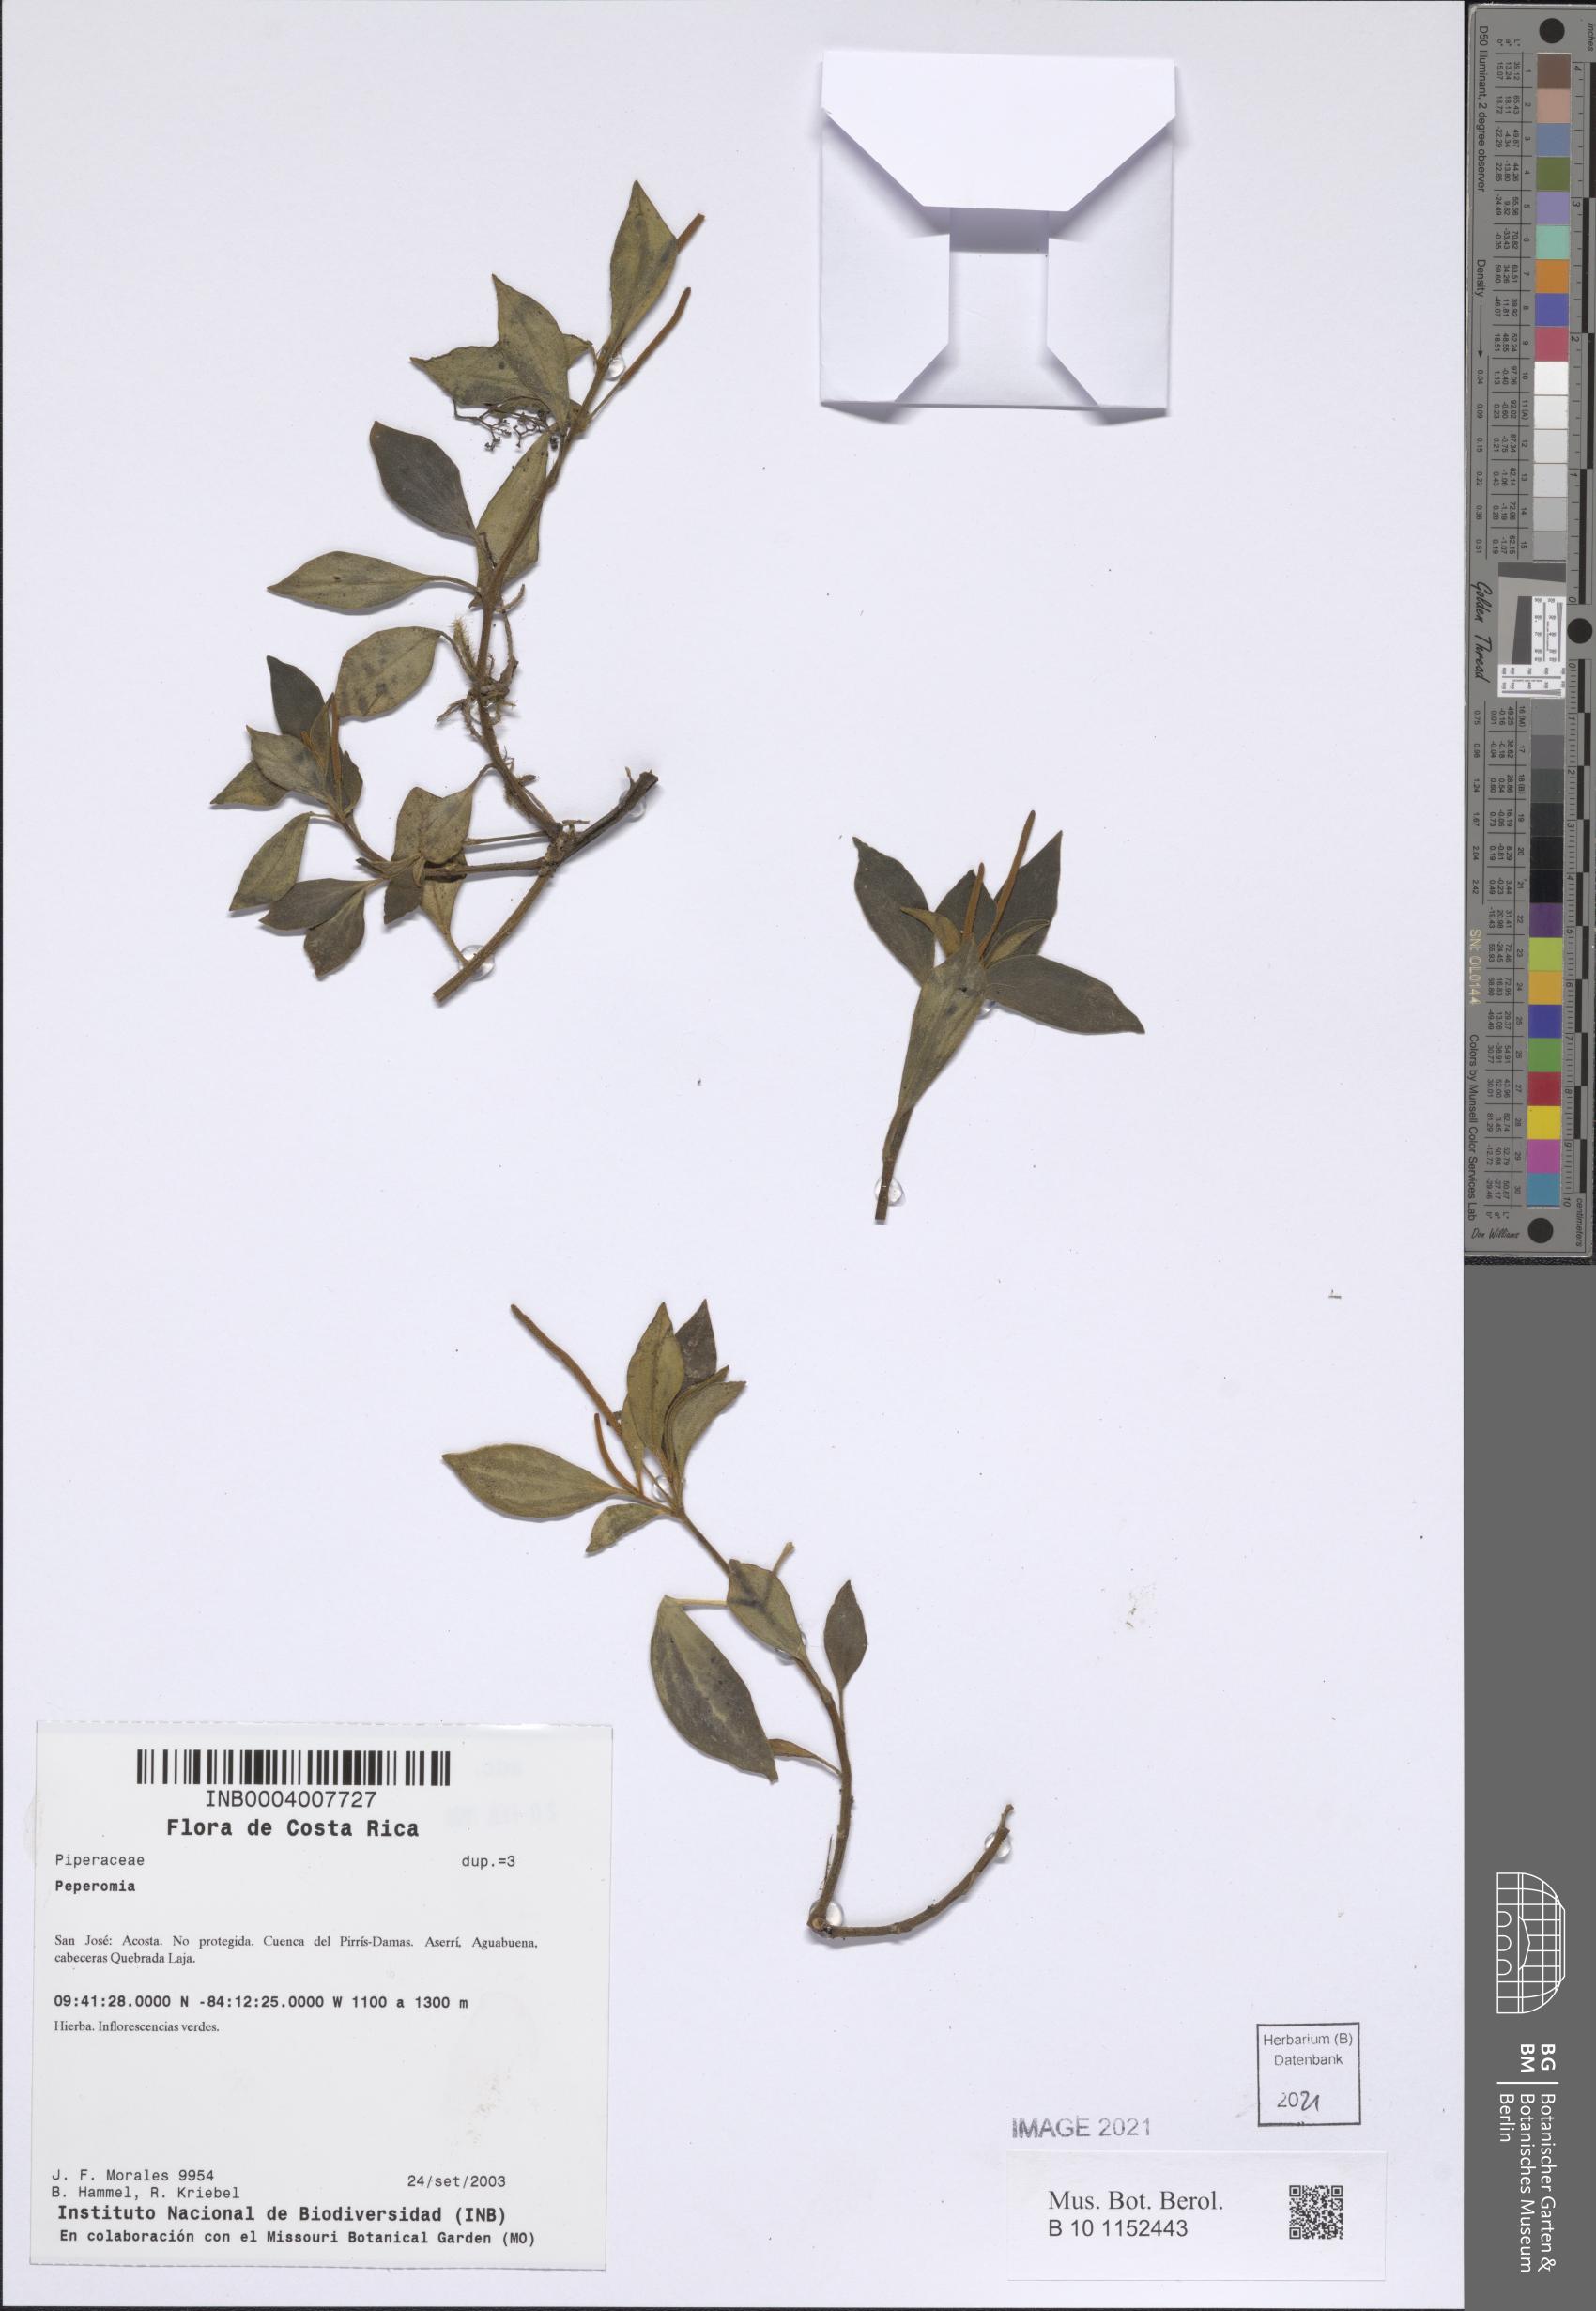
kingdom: Plantae
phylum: Tracheophyta
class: Magnoliopsida
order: Piperales
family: Piperaceae
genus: Peperomia
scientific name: Peperomia
